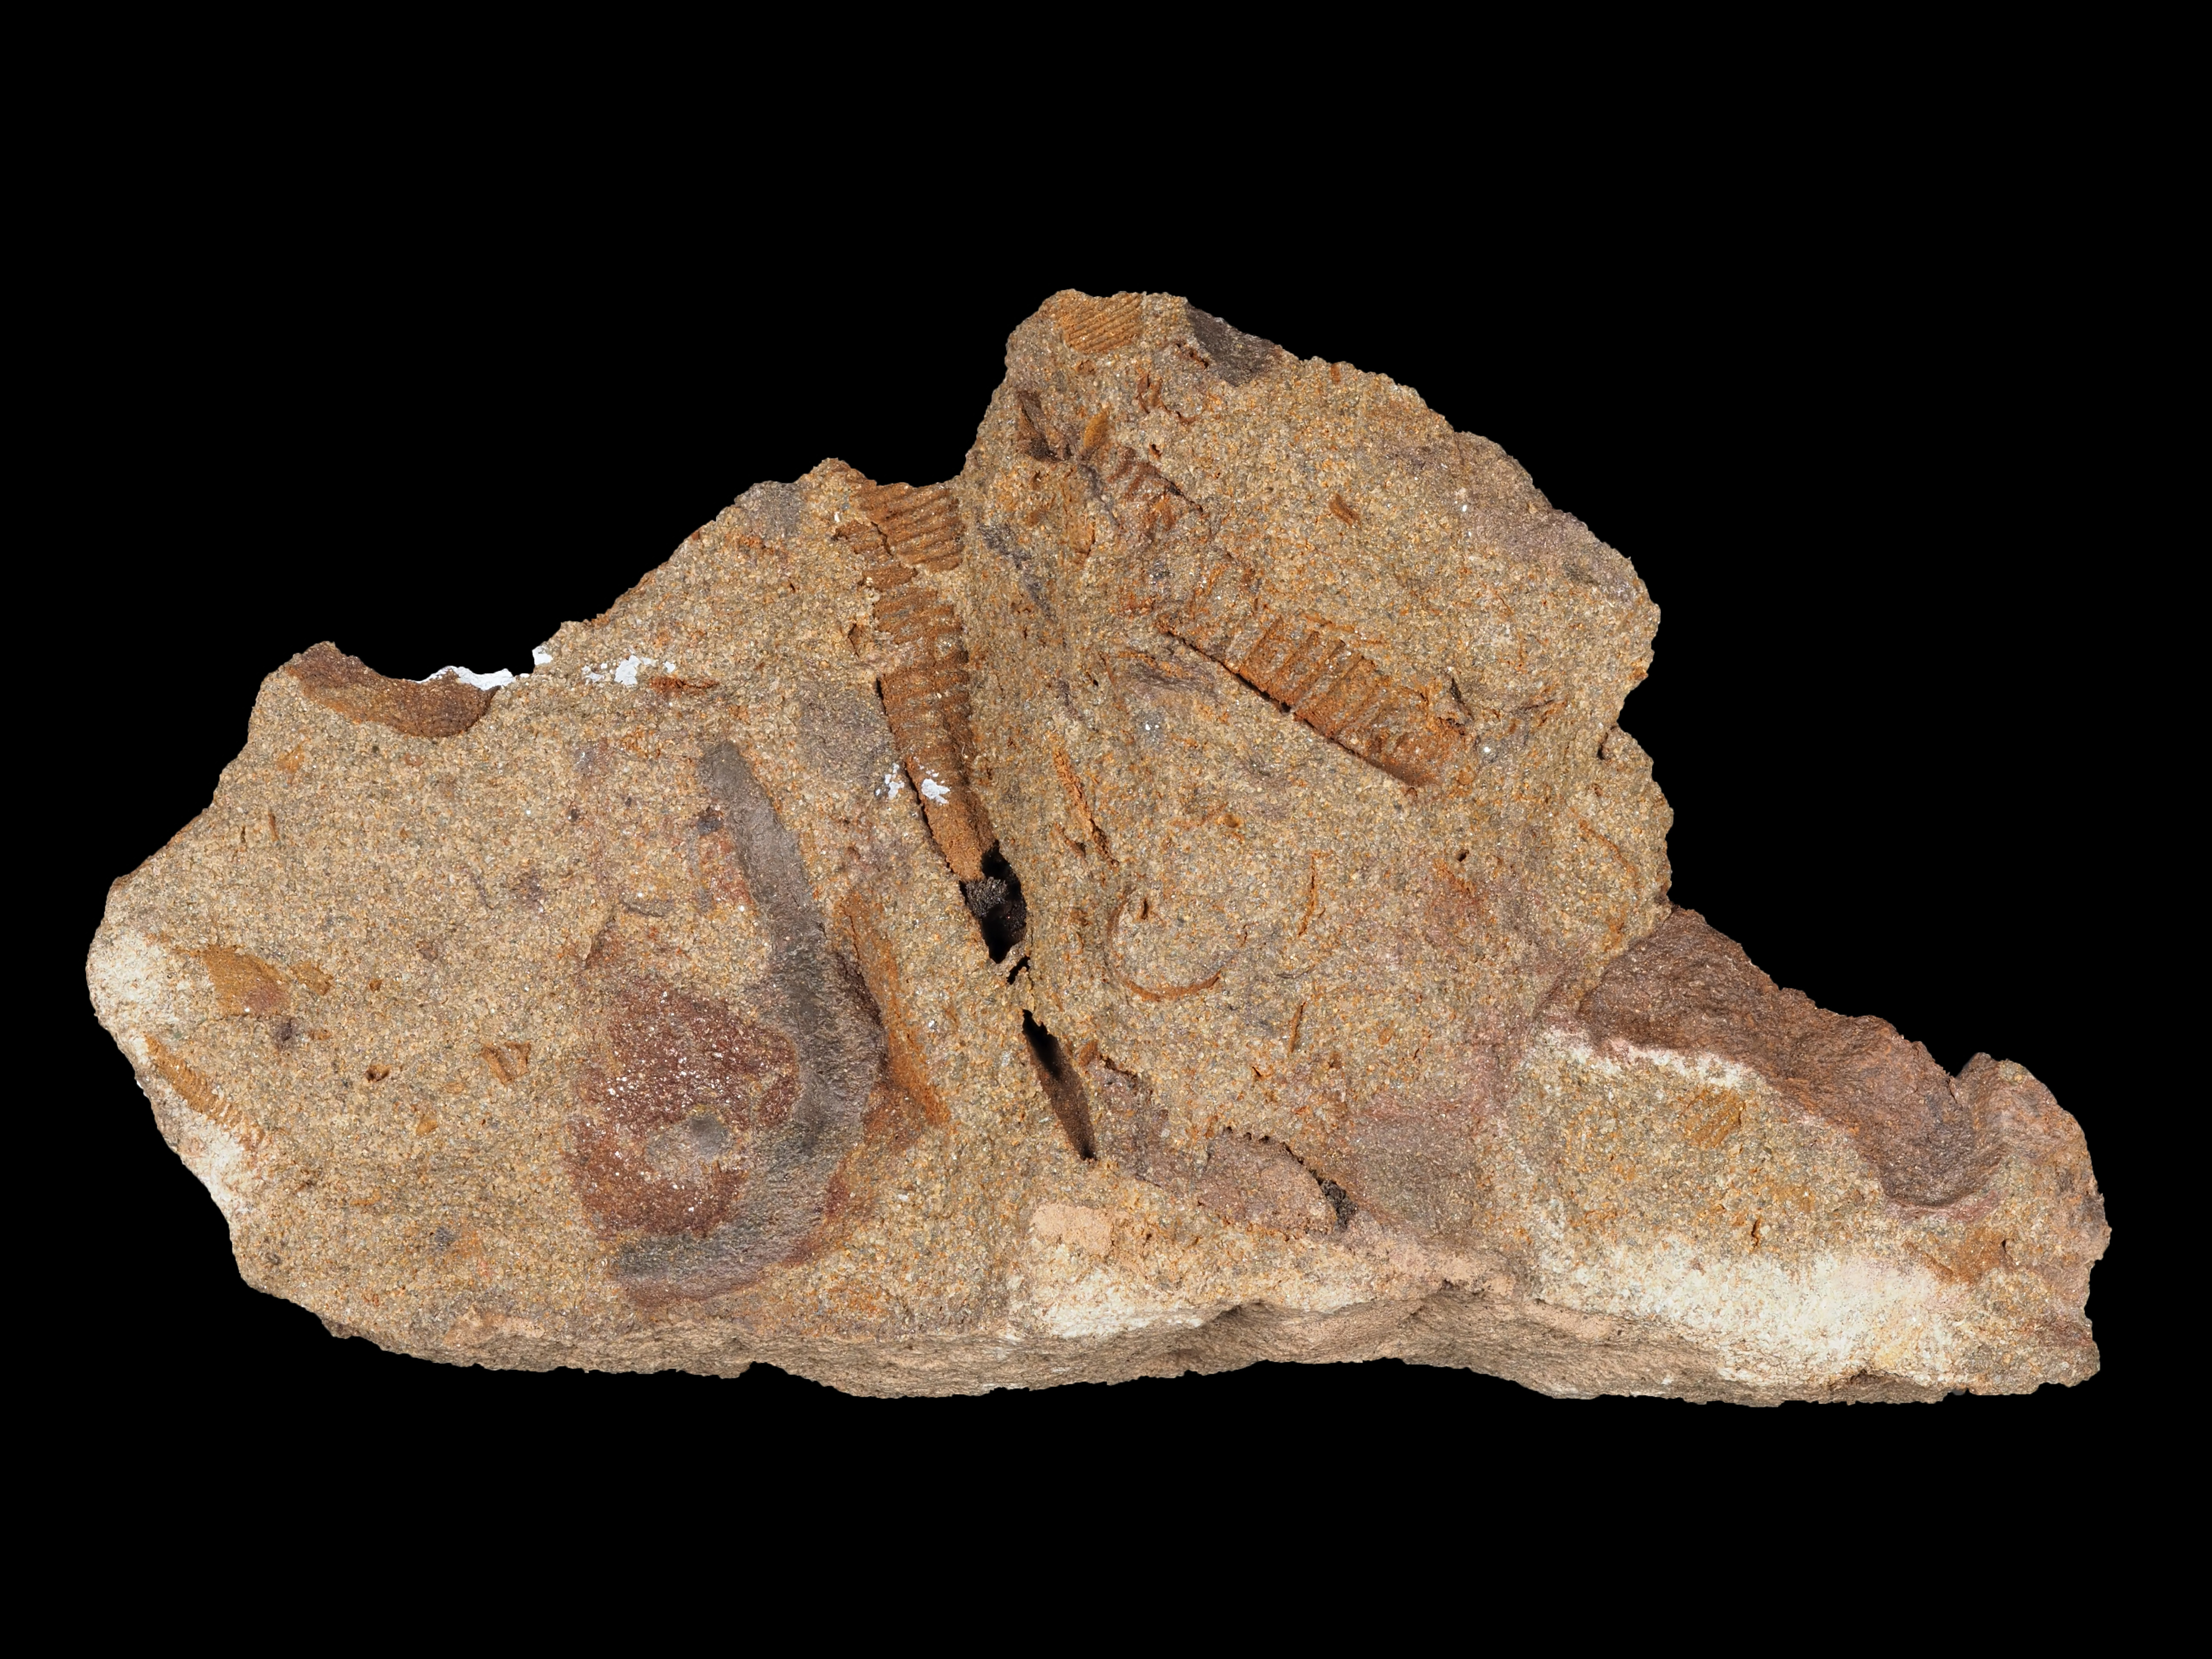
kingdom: Animalia
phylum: Mollusca
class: Cricoconarida
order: Tentaculitida
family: Tentaculitidae
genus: Tentaculites
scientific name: Tentaculites
